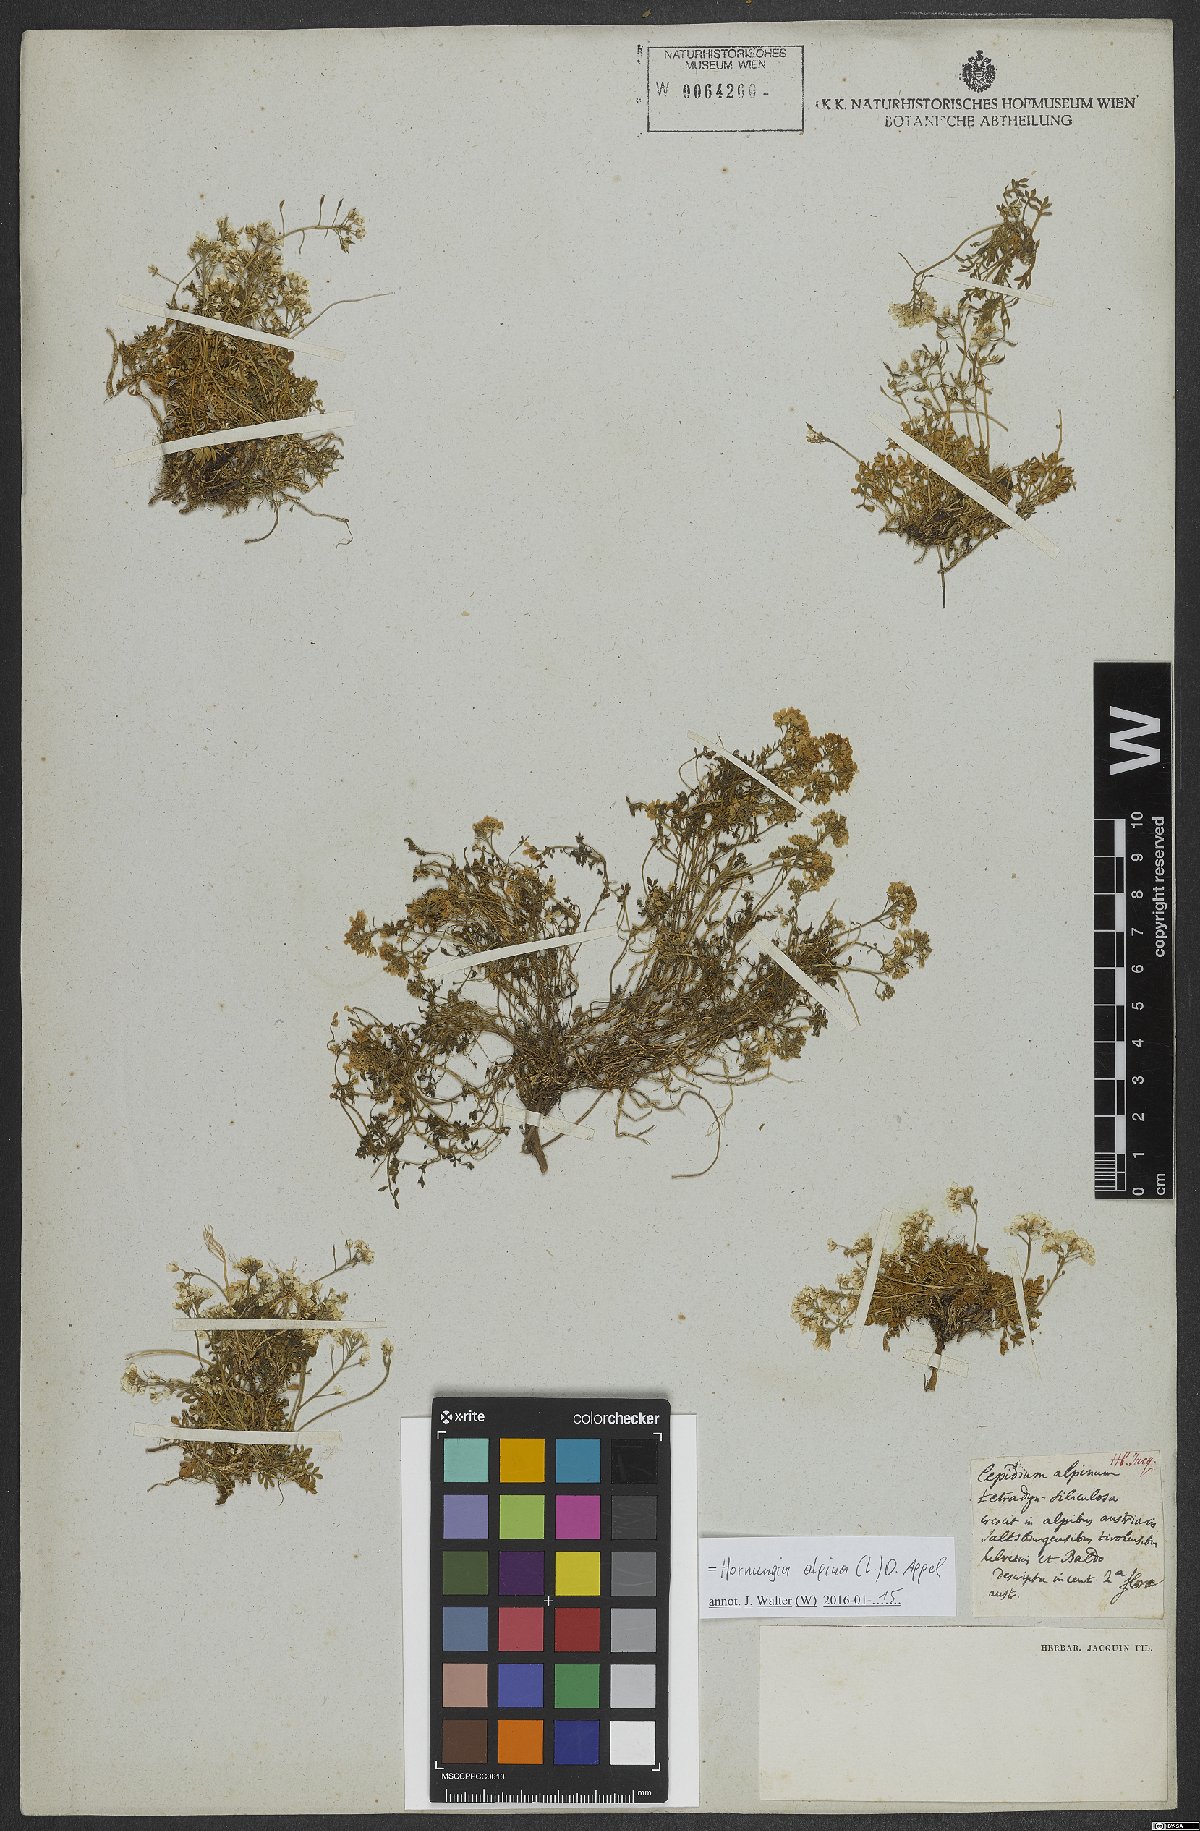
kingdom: Plantae
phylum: Tracheophyta
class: Magnoliopsida
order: Brassicales
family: Brassicaceae
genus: Hornungia
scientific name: Hornungia alpina
